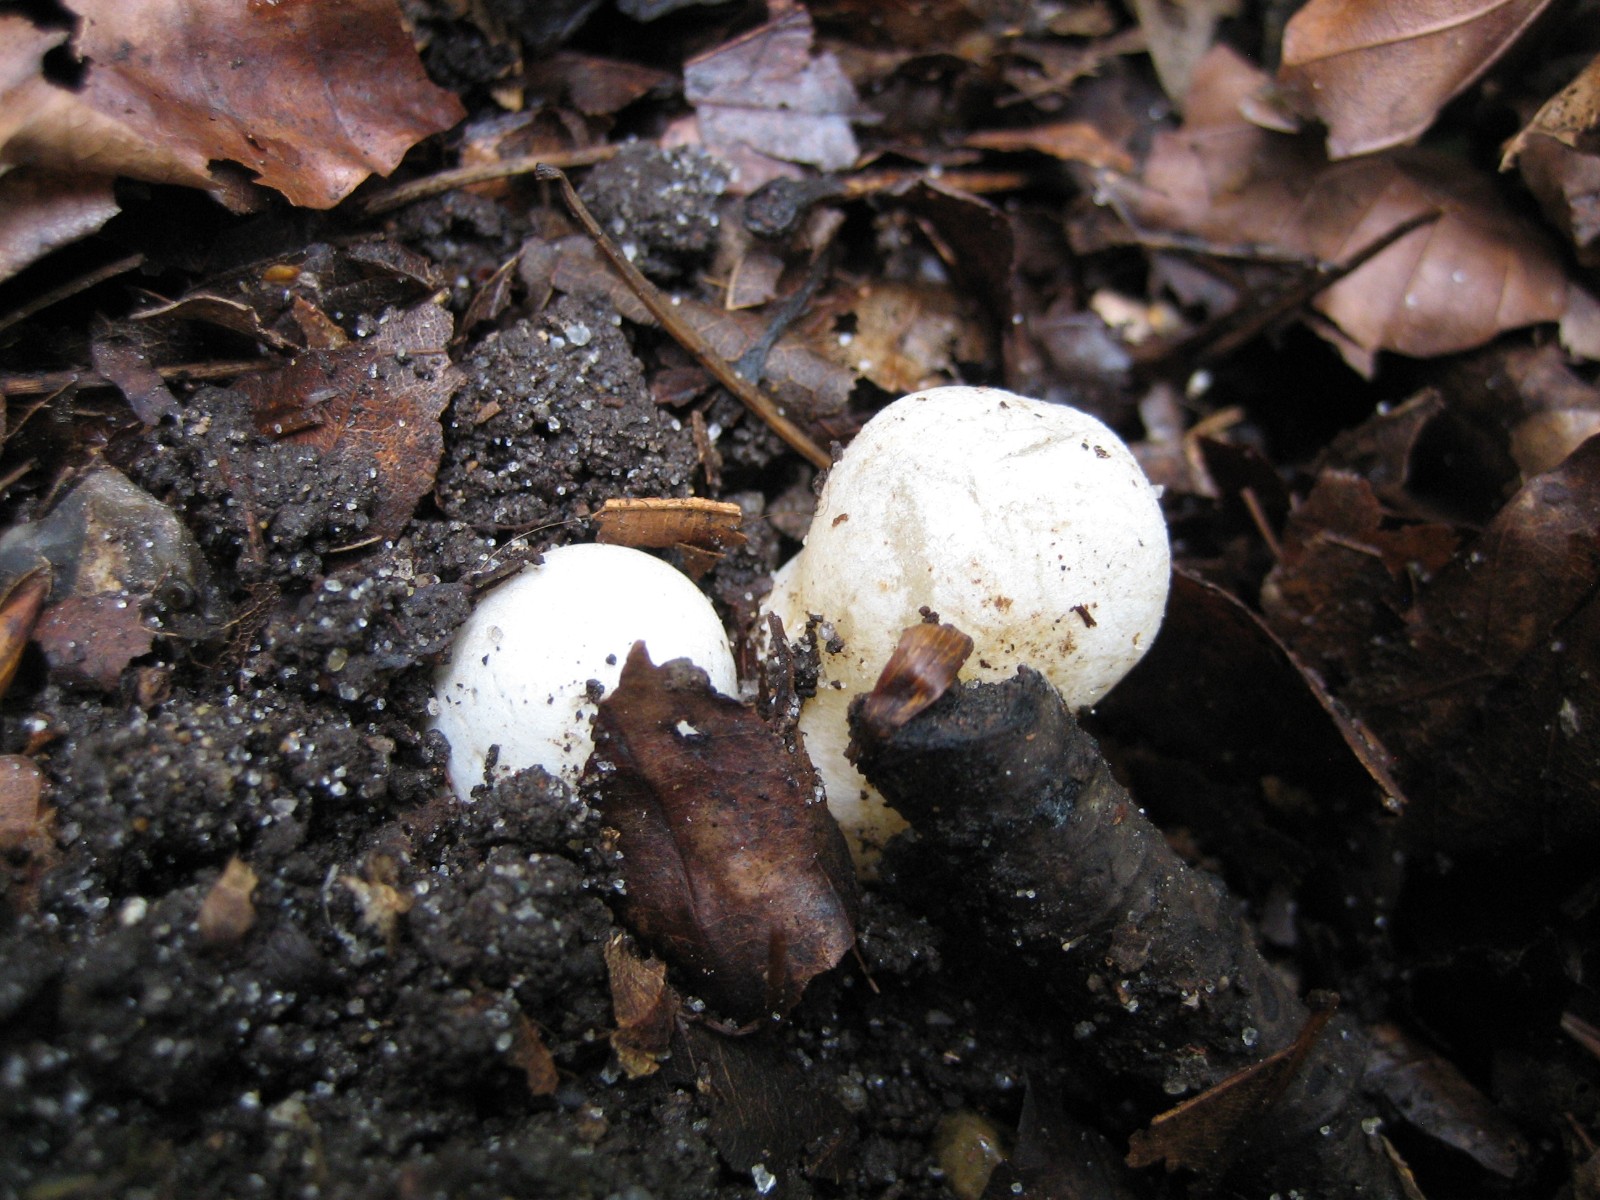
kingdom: Fungi
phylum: Basidiomycota
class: Agaricomycetes
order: Phallales
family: Phallaceae
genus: Mutinus
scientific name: Mutinus caninus
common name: hunde-stinksvamp
